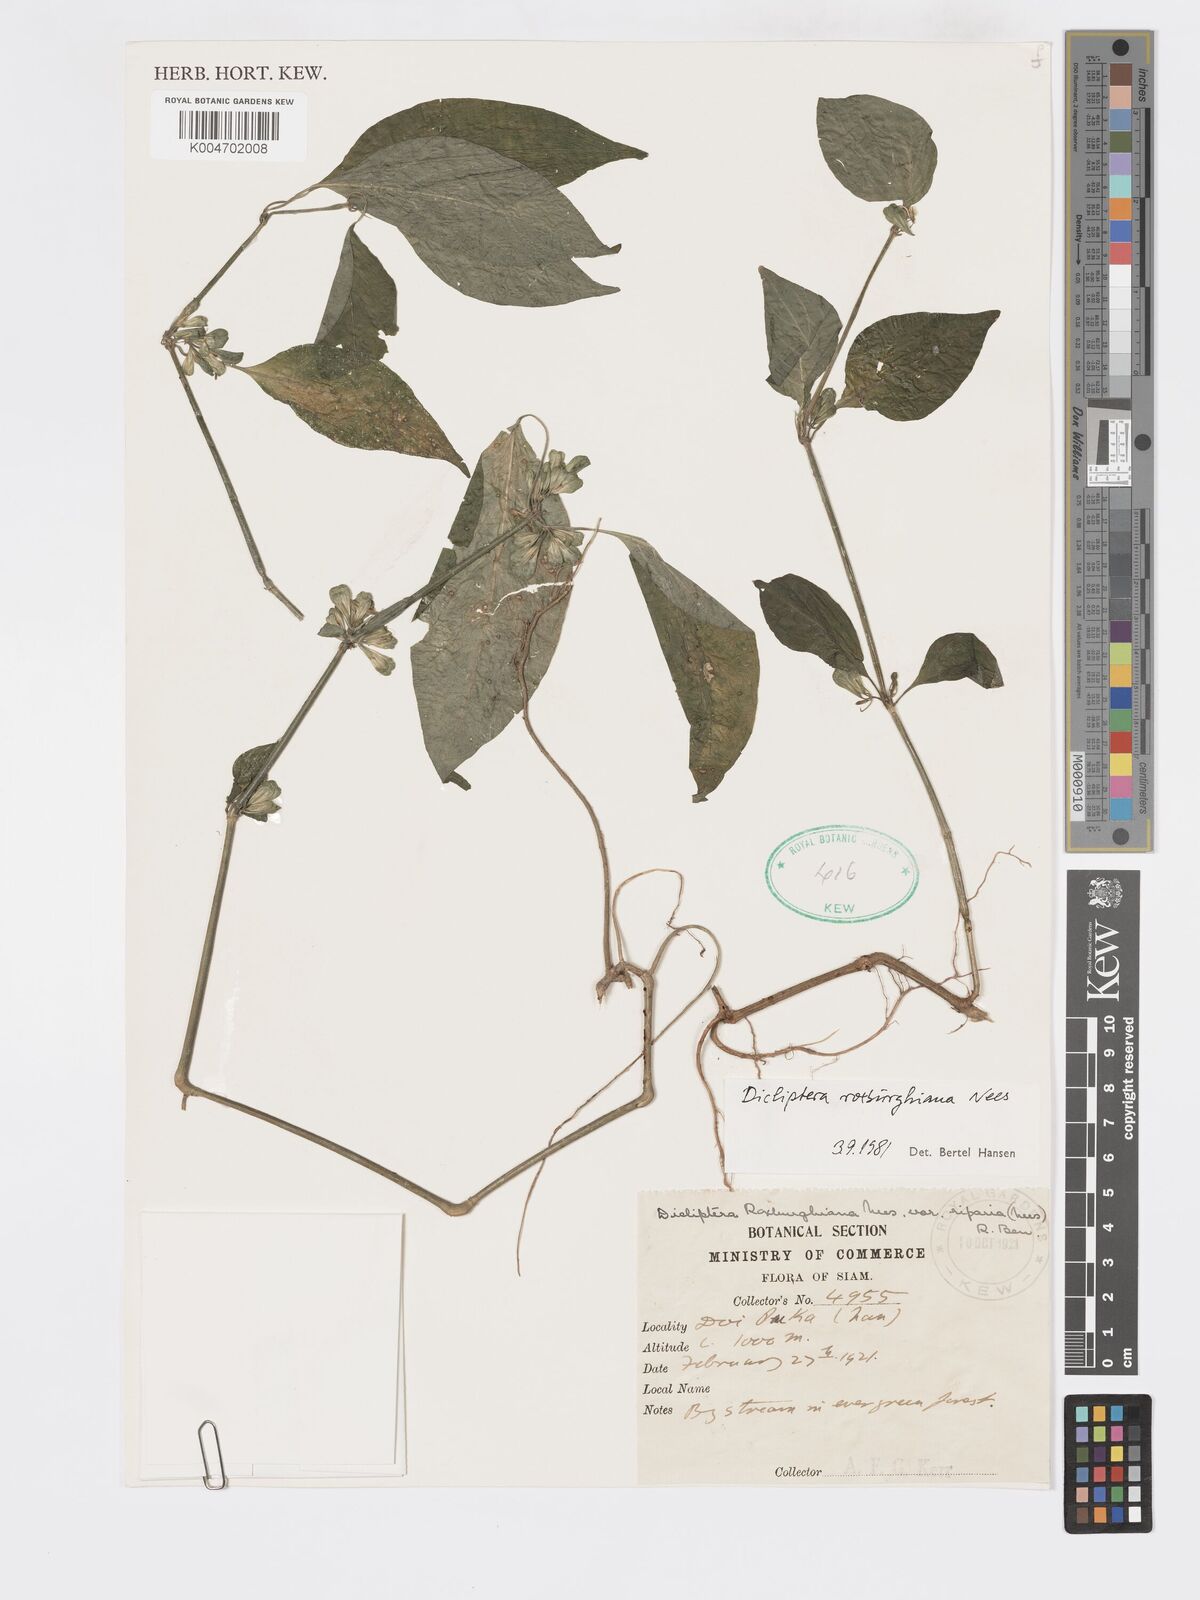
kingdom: Plantae
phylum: Tracheophyta
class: Magnoliopsida
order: Lamiales
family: Acanthaceae
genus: Dicliptera
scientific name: Dicliptera chinensis
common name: Chinese foldwing
